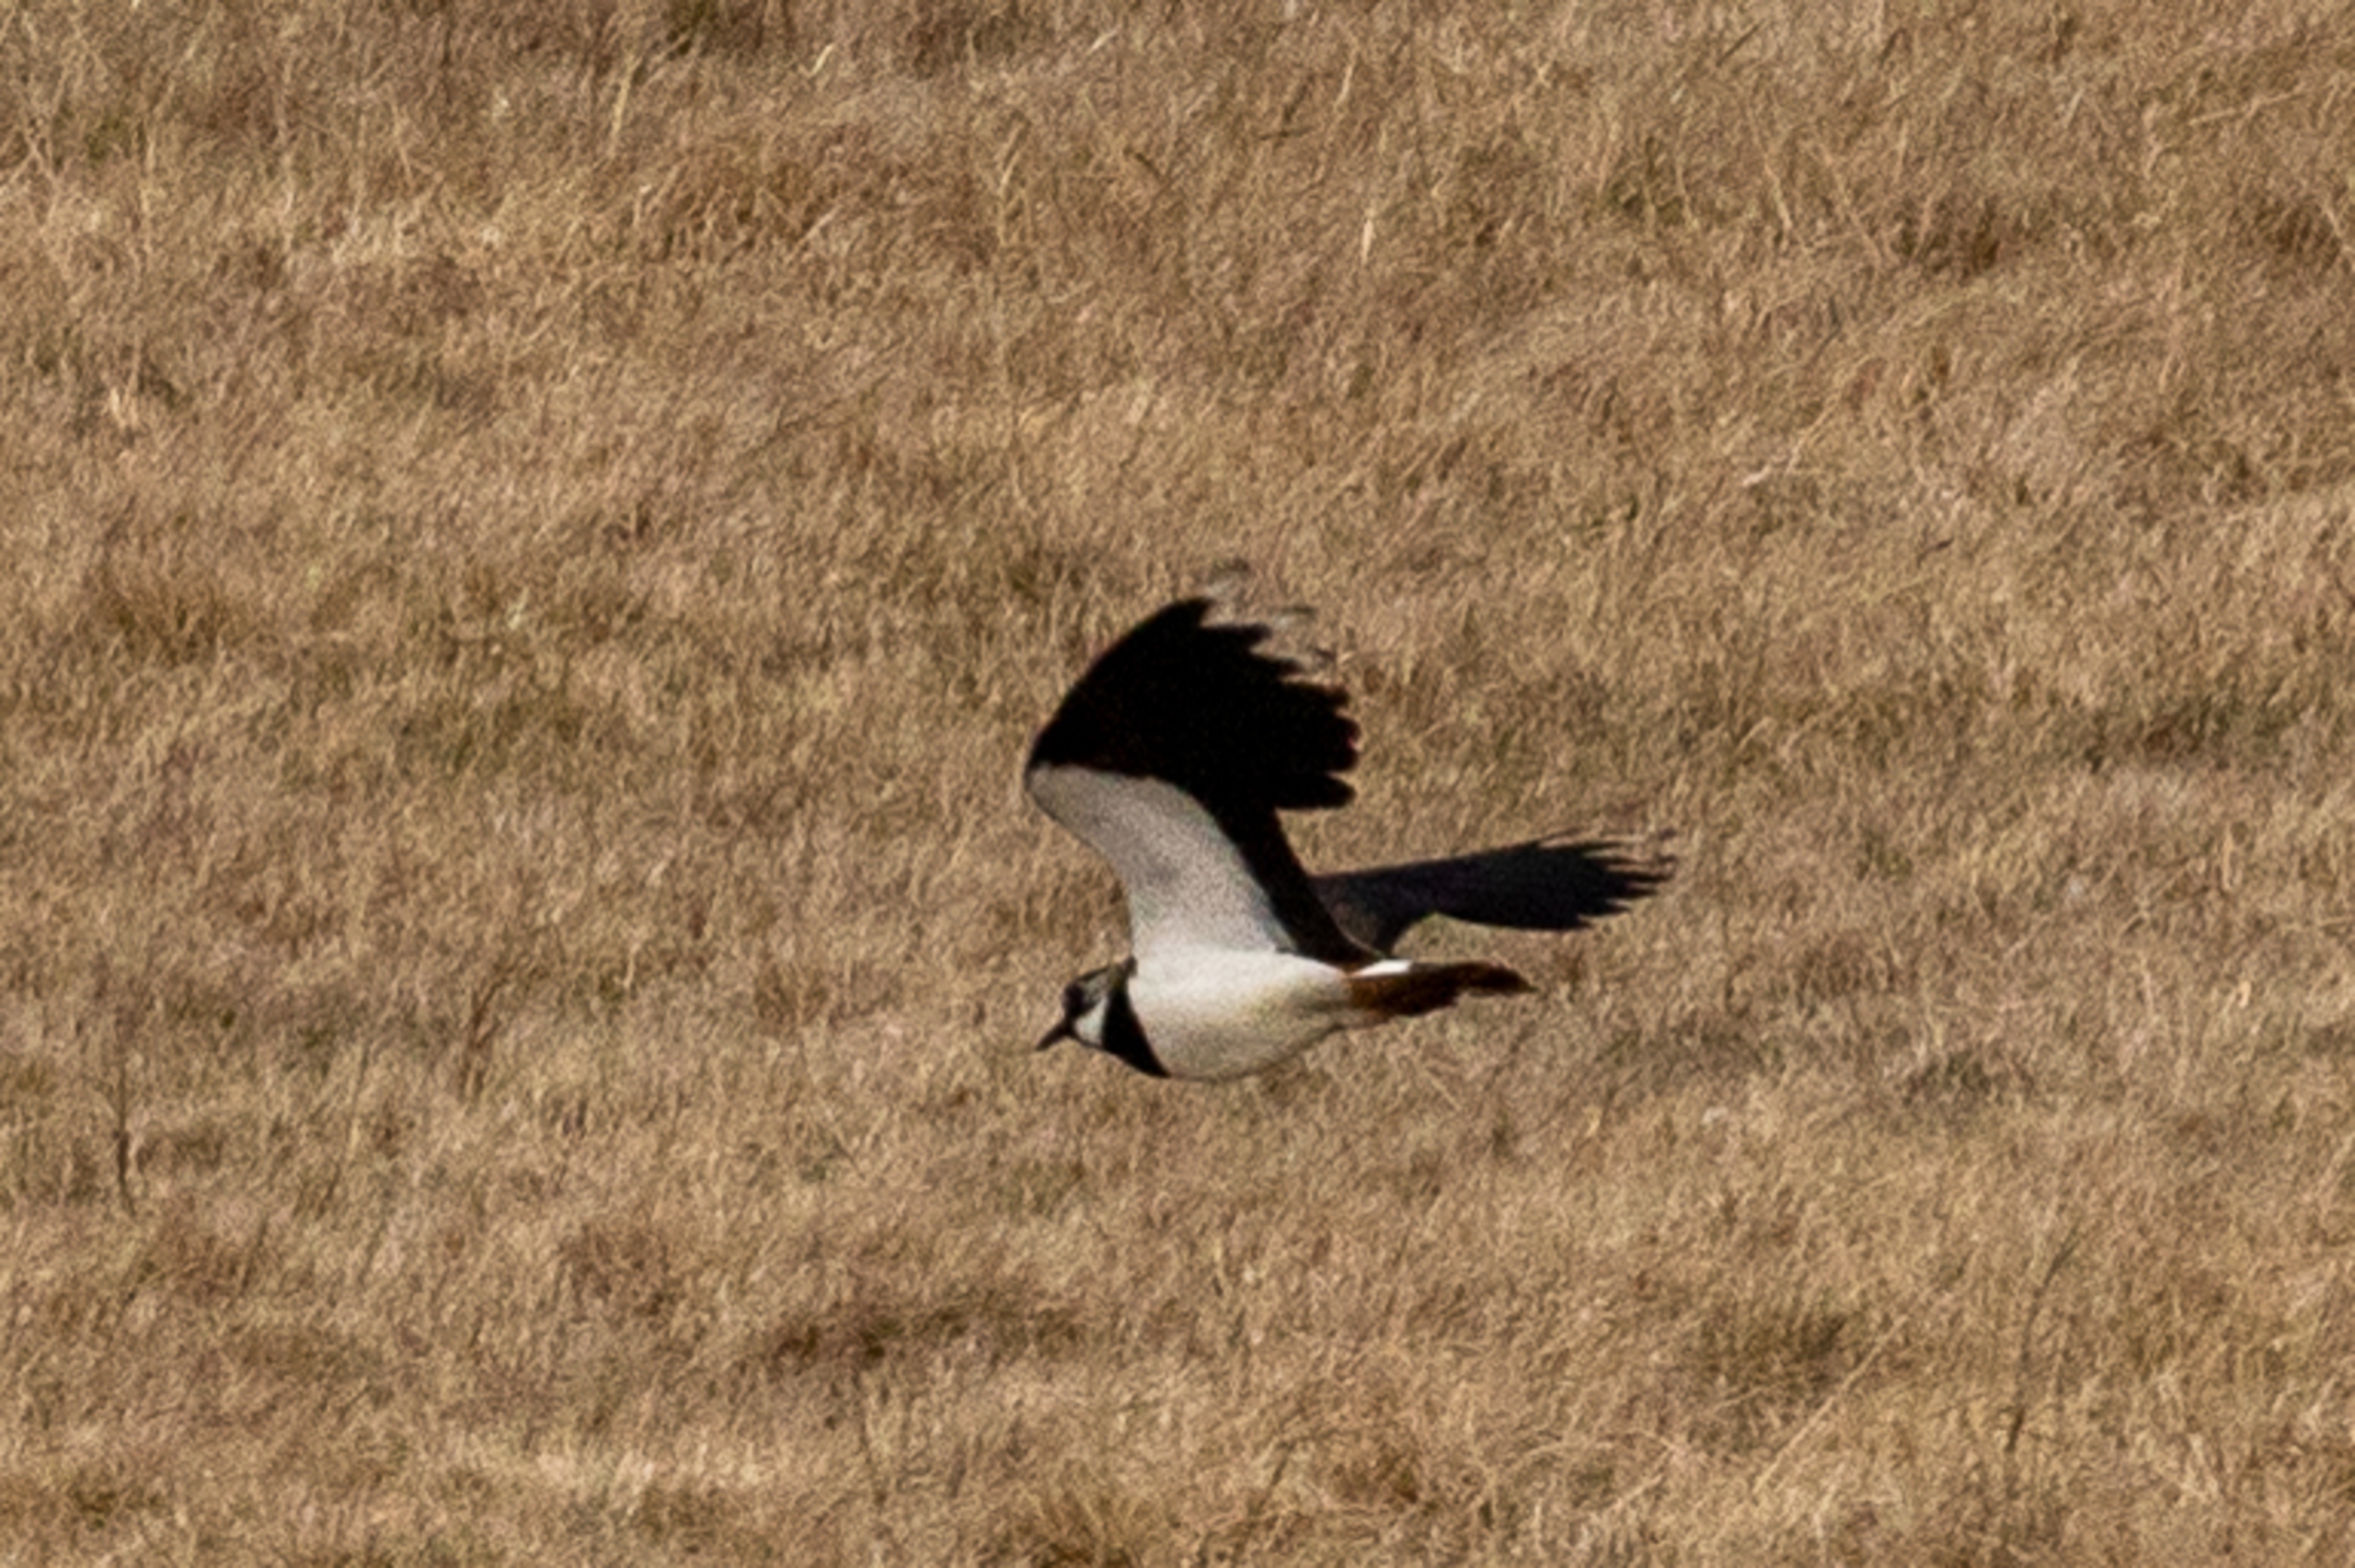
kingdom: Animalia
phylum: Chordata
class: Aves
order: Charadriiformes
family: Charadriidae
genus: Vanellus
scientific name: Vanellus vanellus
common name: Vibe
